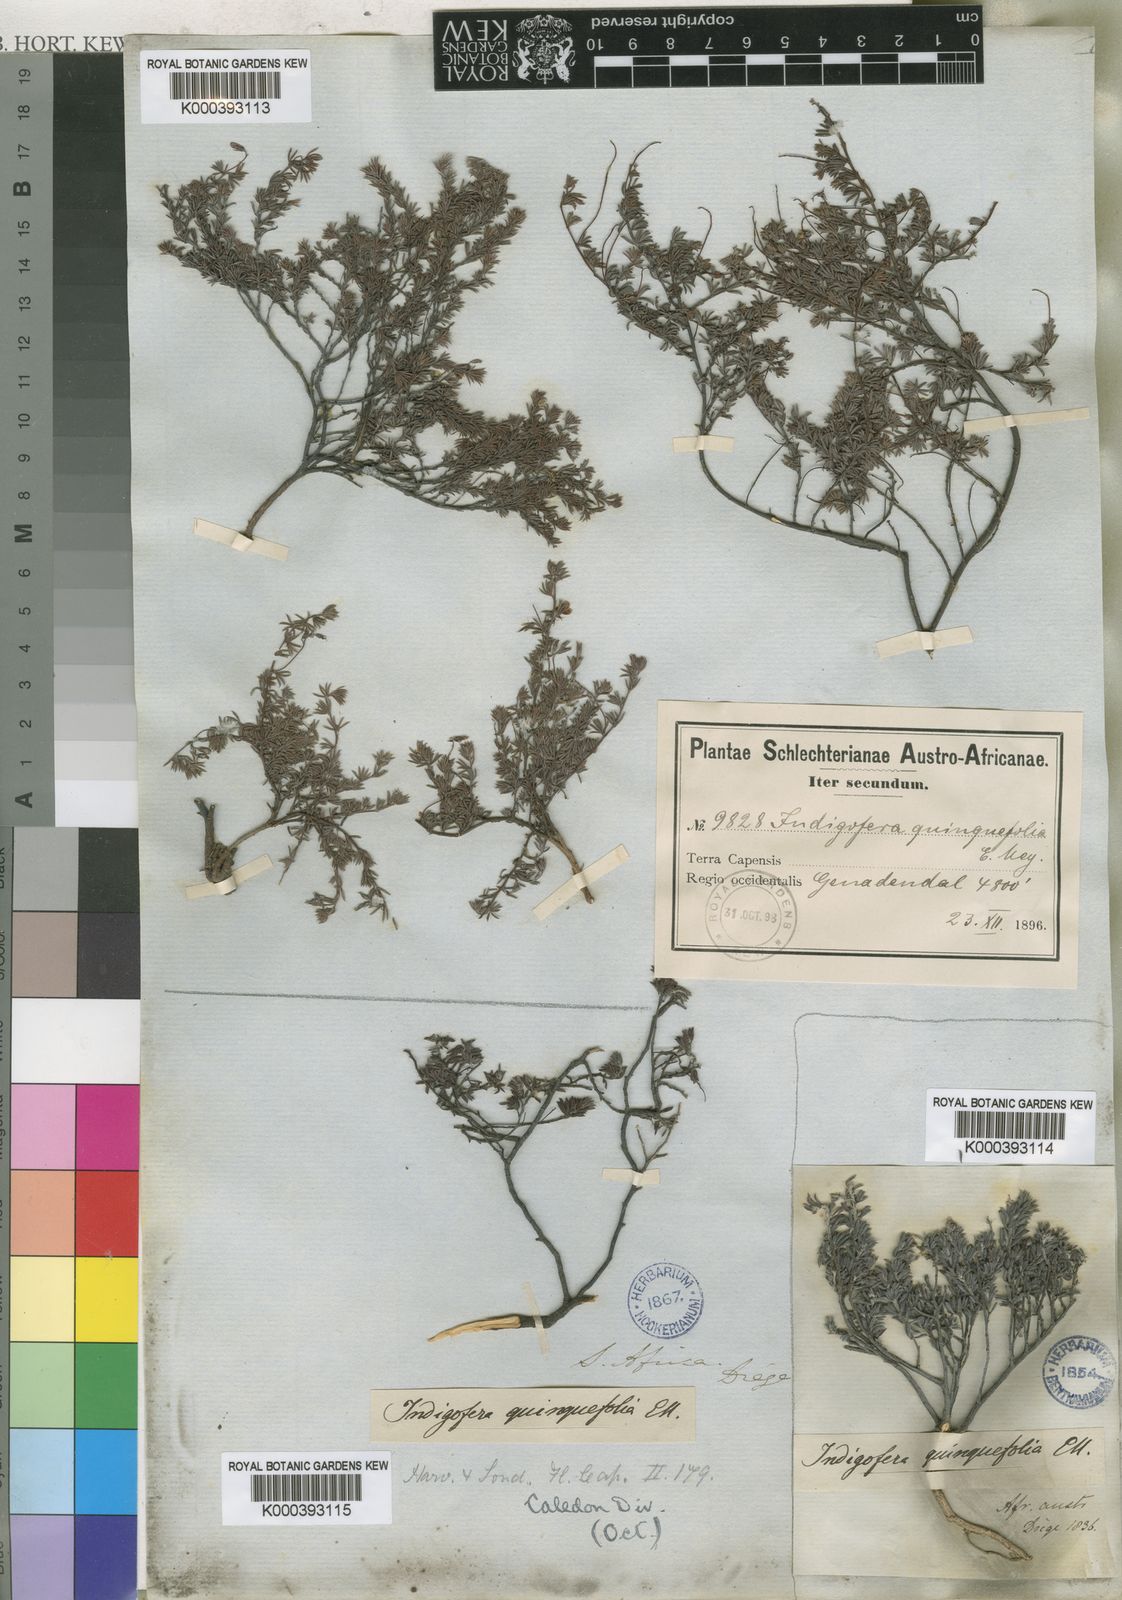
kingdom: Plantae
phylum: Tracheophyta
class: Magnoliopsida
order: Fabales
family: Fabaceae
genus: Indigofera
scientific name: Indigofera quinquefolia
